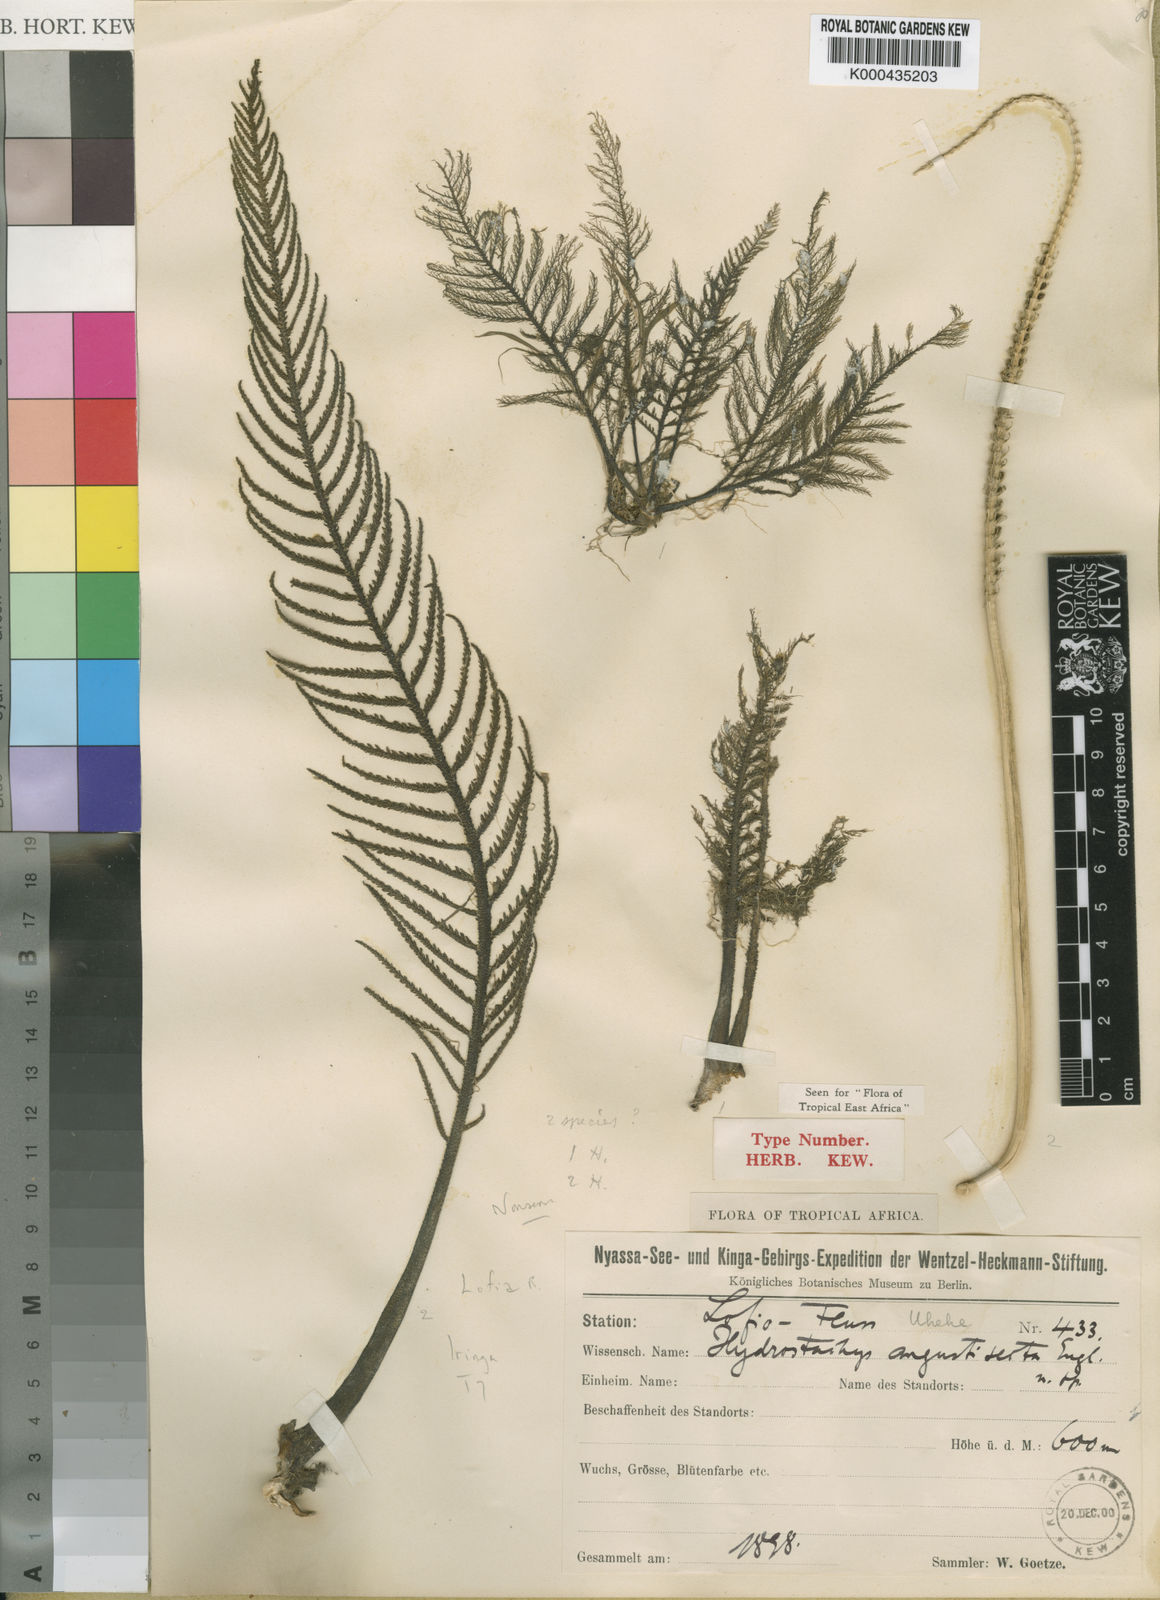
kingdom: Plantae
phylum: Tracheophyta
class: Magnoliopsida
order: Cornales
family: Hydrostachyaceae
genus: Hydrostachys
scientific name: Hydrostachys angustisecta
